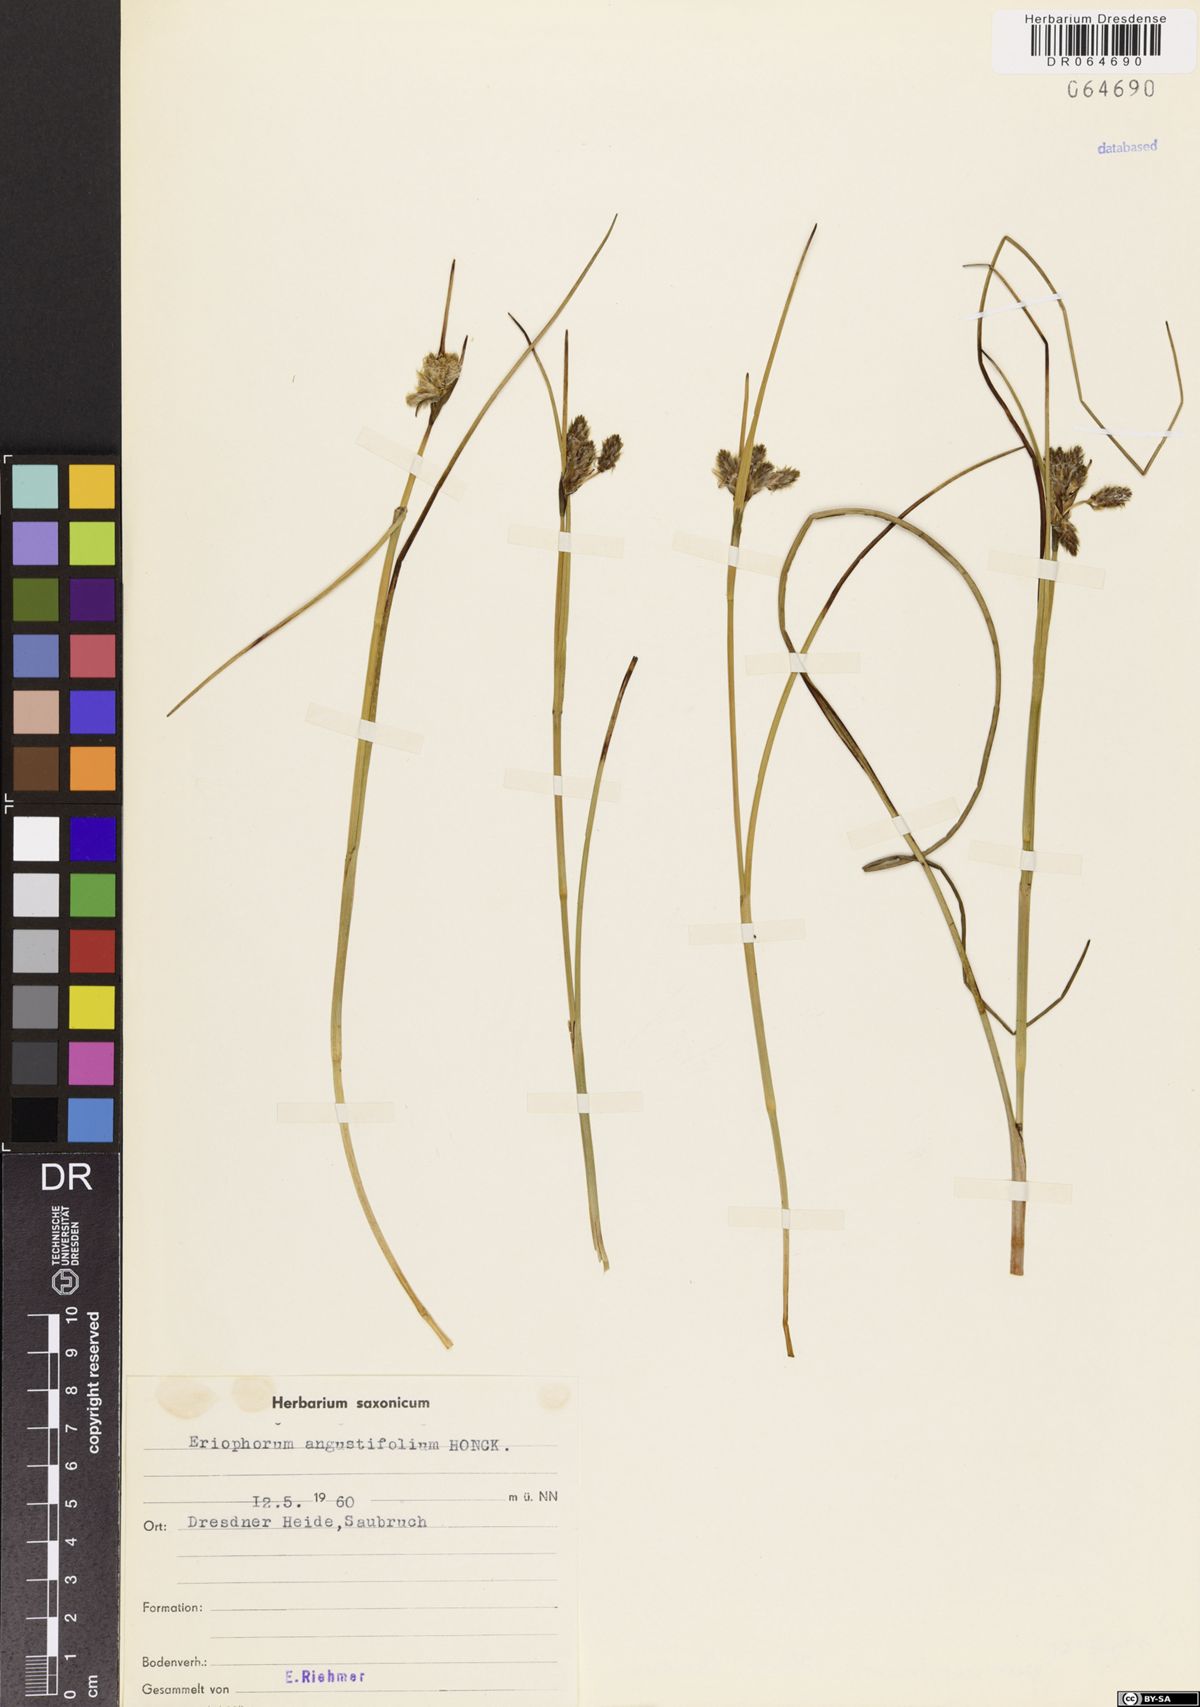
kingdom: Plantae
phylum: Tracheophyta
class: Liliopsida
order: Poales
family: Cyperaceae
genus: Eriophorum
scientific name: Eriophorum angustifolium
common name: Common cottongrass
